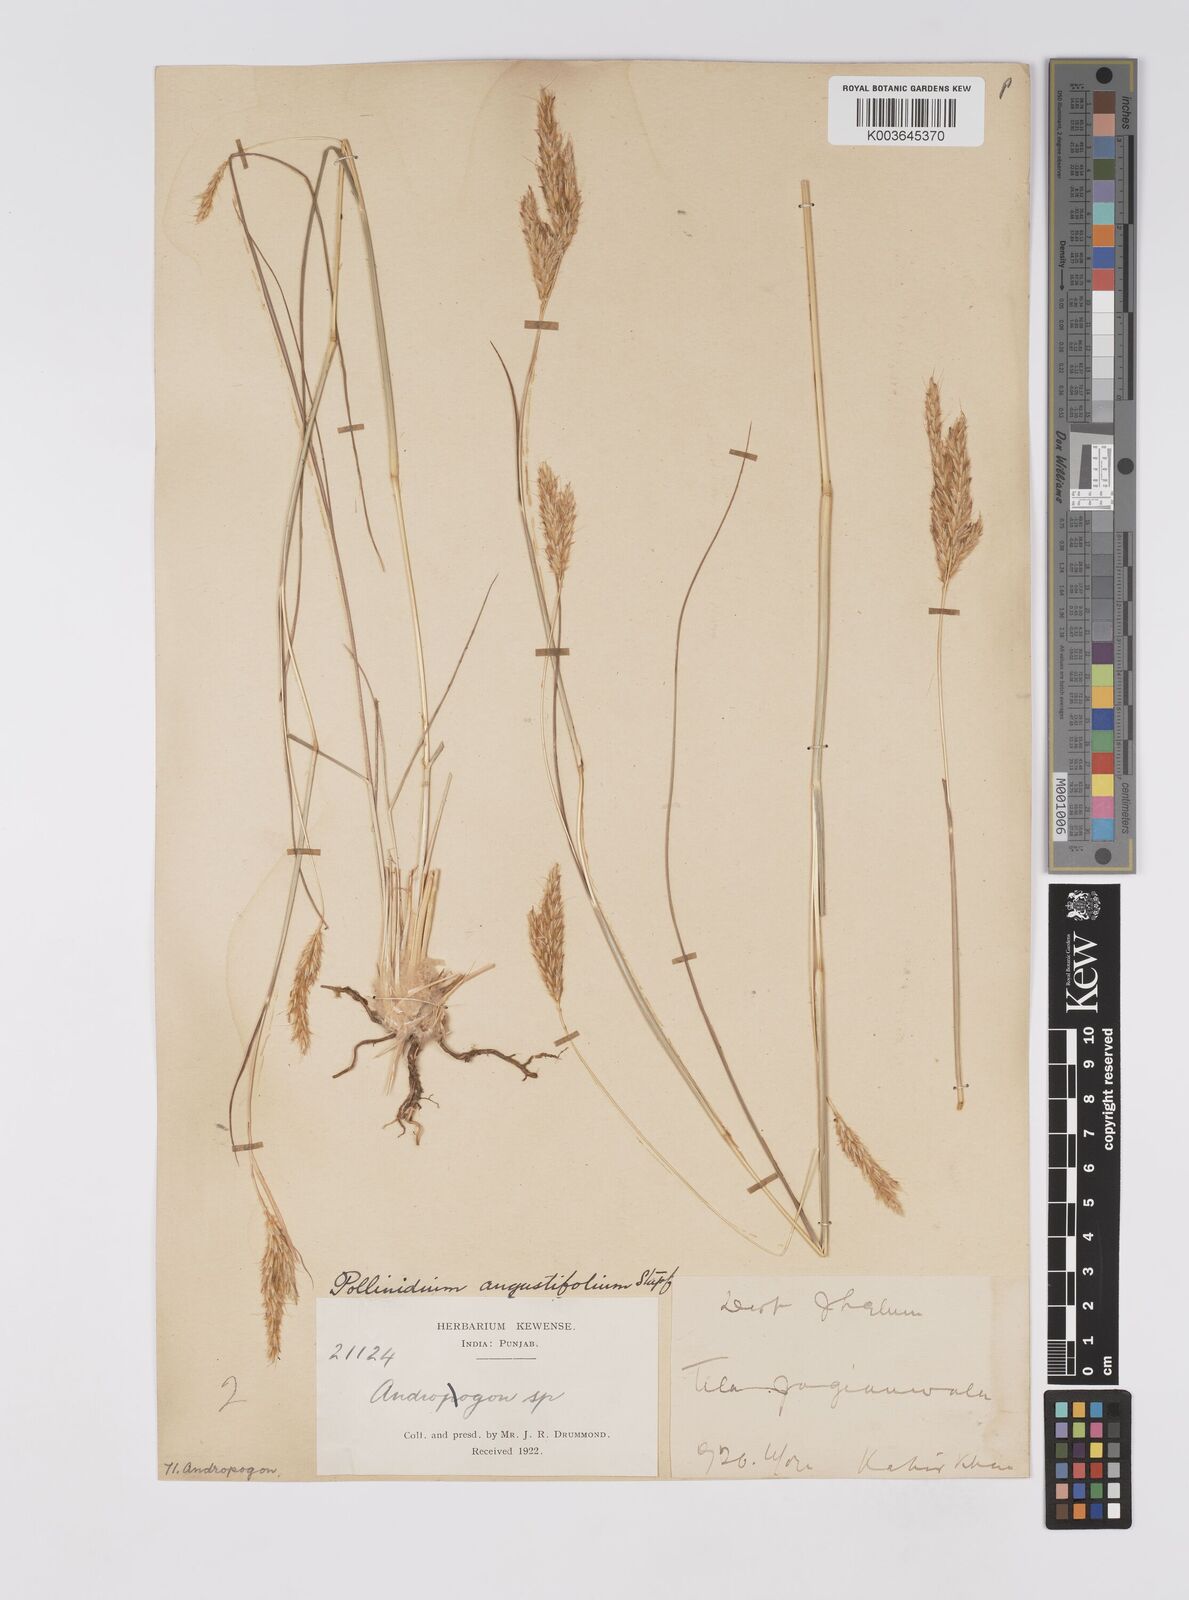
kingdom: Plantae
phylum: Tracheophyta
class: Liliopsida
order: Poales
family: Poaceae
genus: Eulaliopsis
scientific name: Eulaliopsis binata
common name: Baib grass
